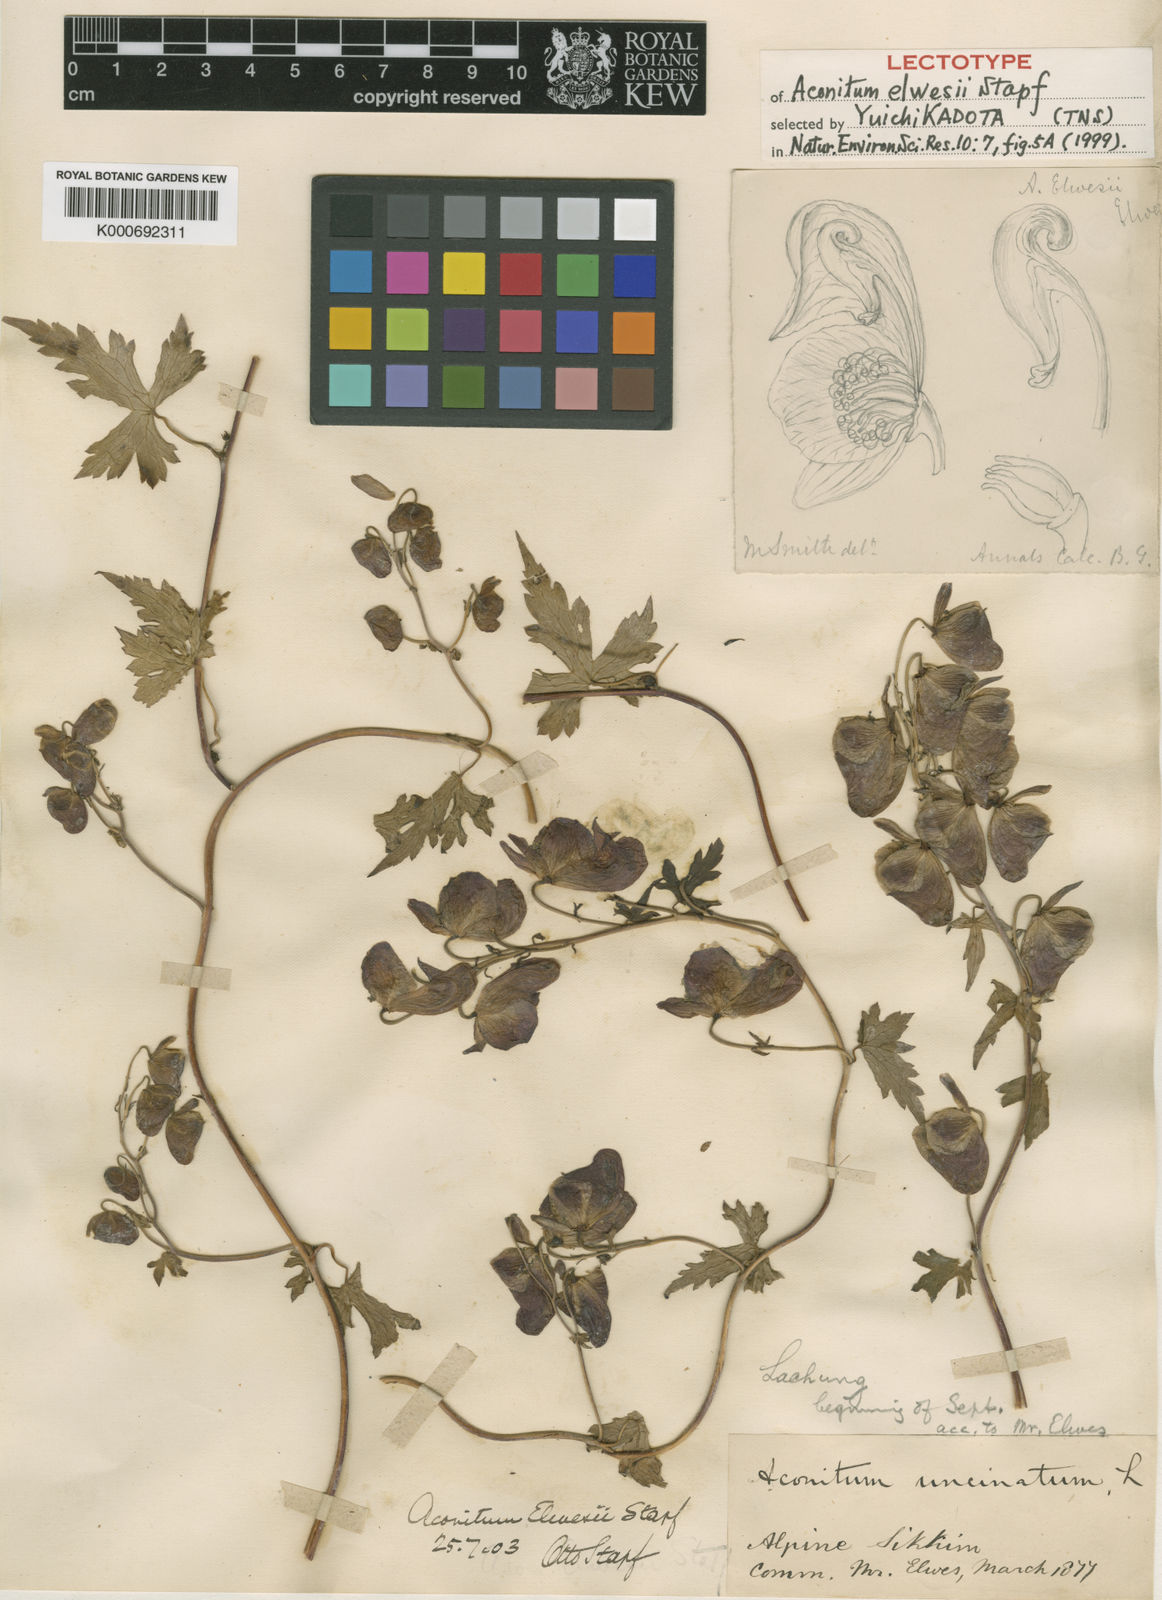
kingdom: Plantae
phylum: Tracheophyta
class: Magnoliopsida
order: Ranunculales
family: Ranunculaceae
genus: Aconitum
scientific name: Aconitum elwesii
